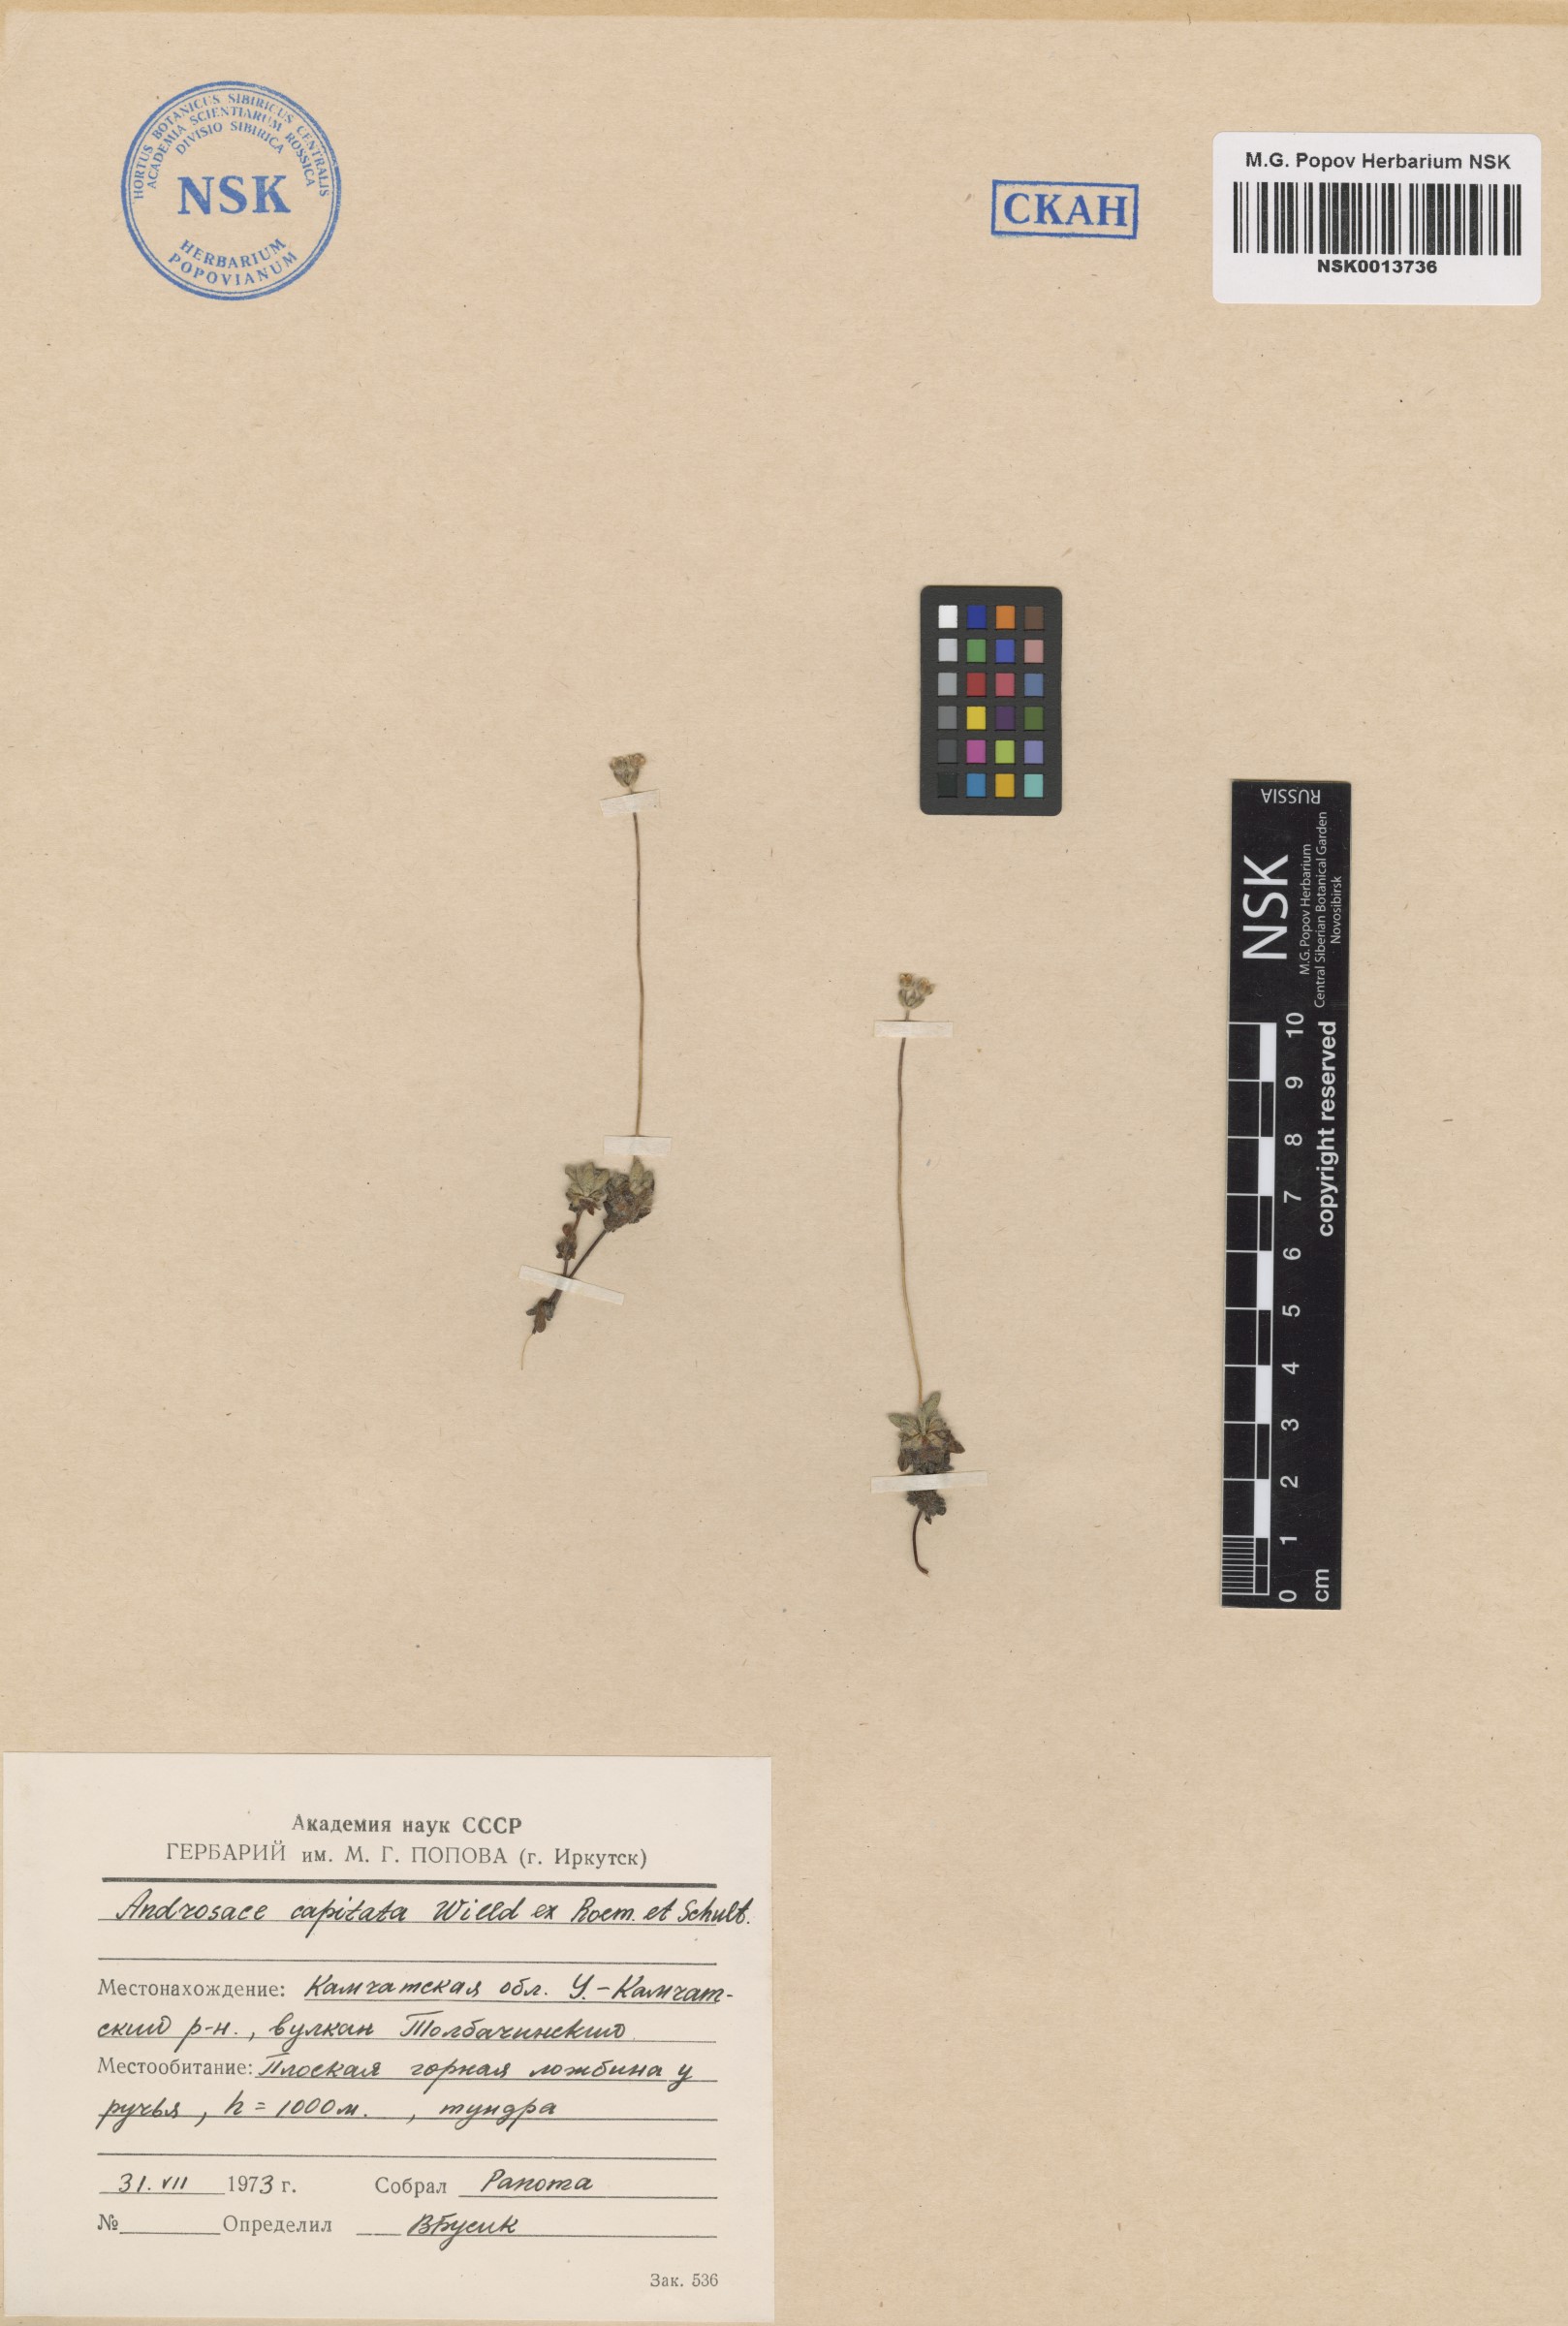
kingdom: Plantae
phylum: Tracheophyta
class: Magnoliopsida
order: Ericales
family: Primulaceae
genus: Androsace
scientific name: Androsace chamaejasme
